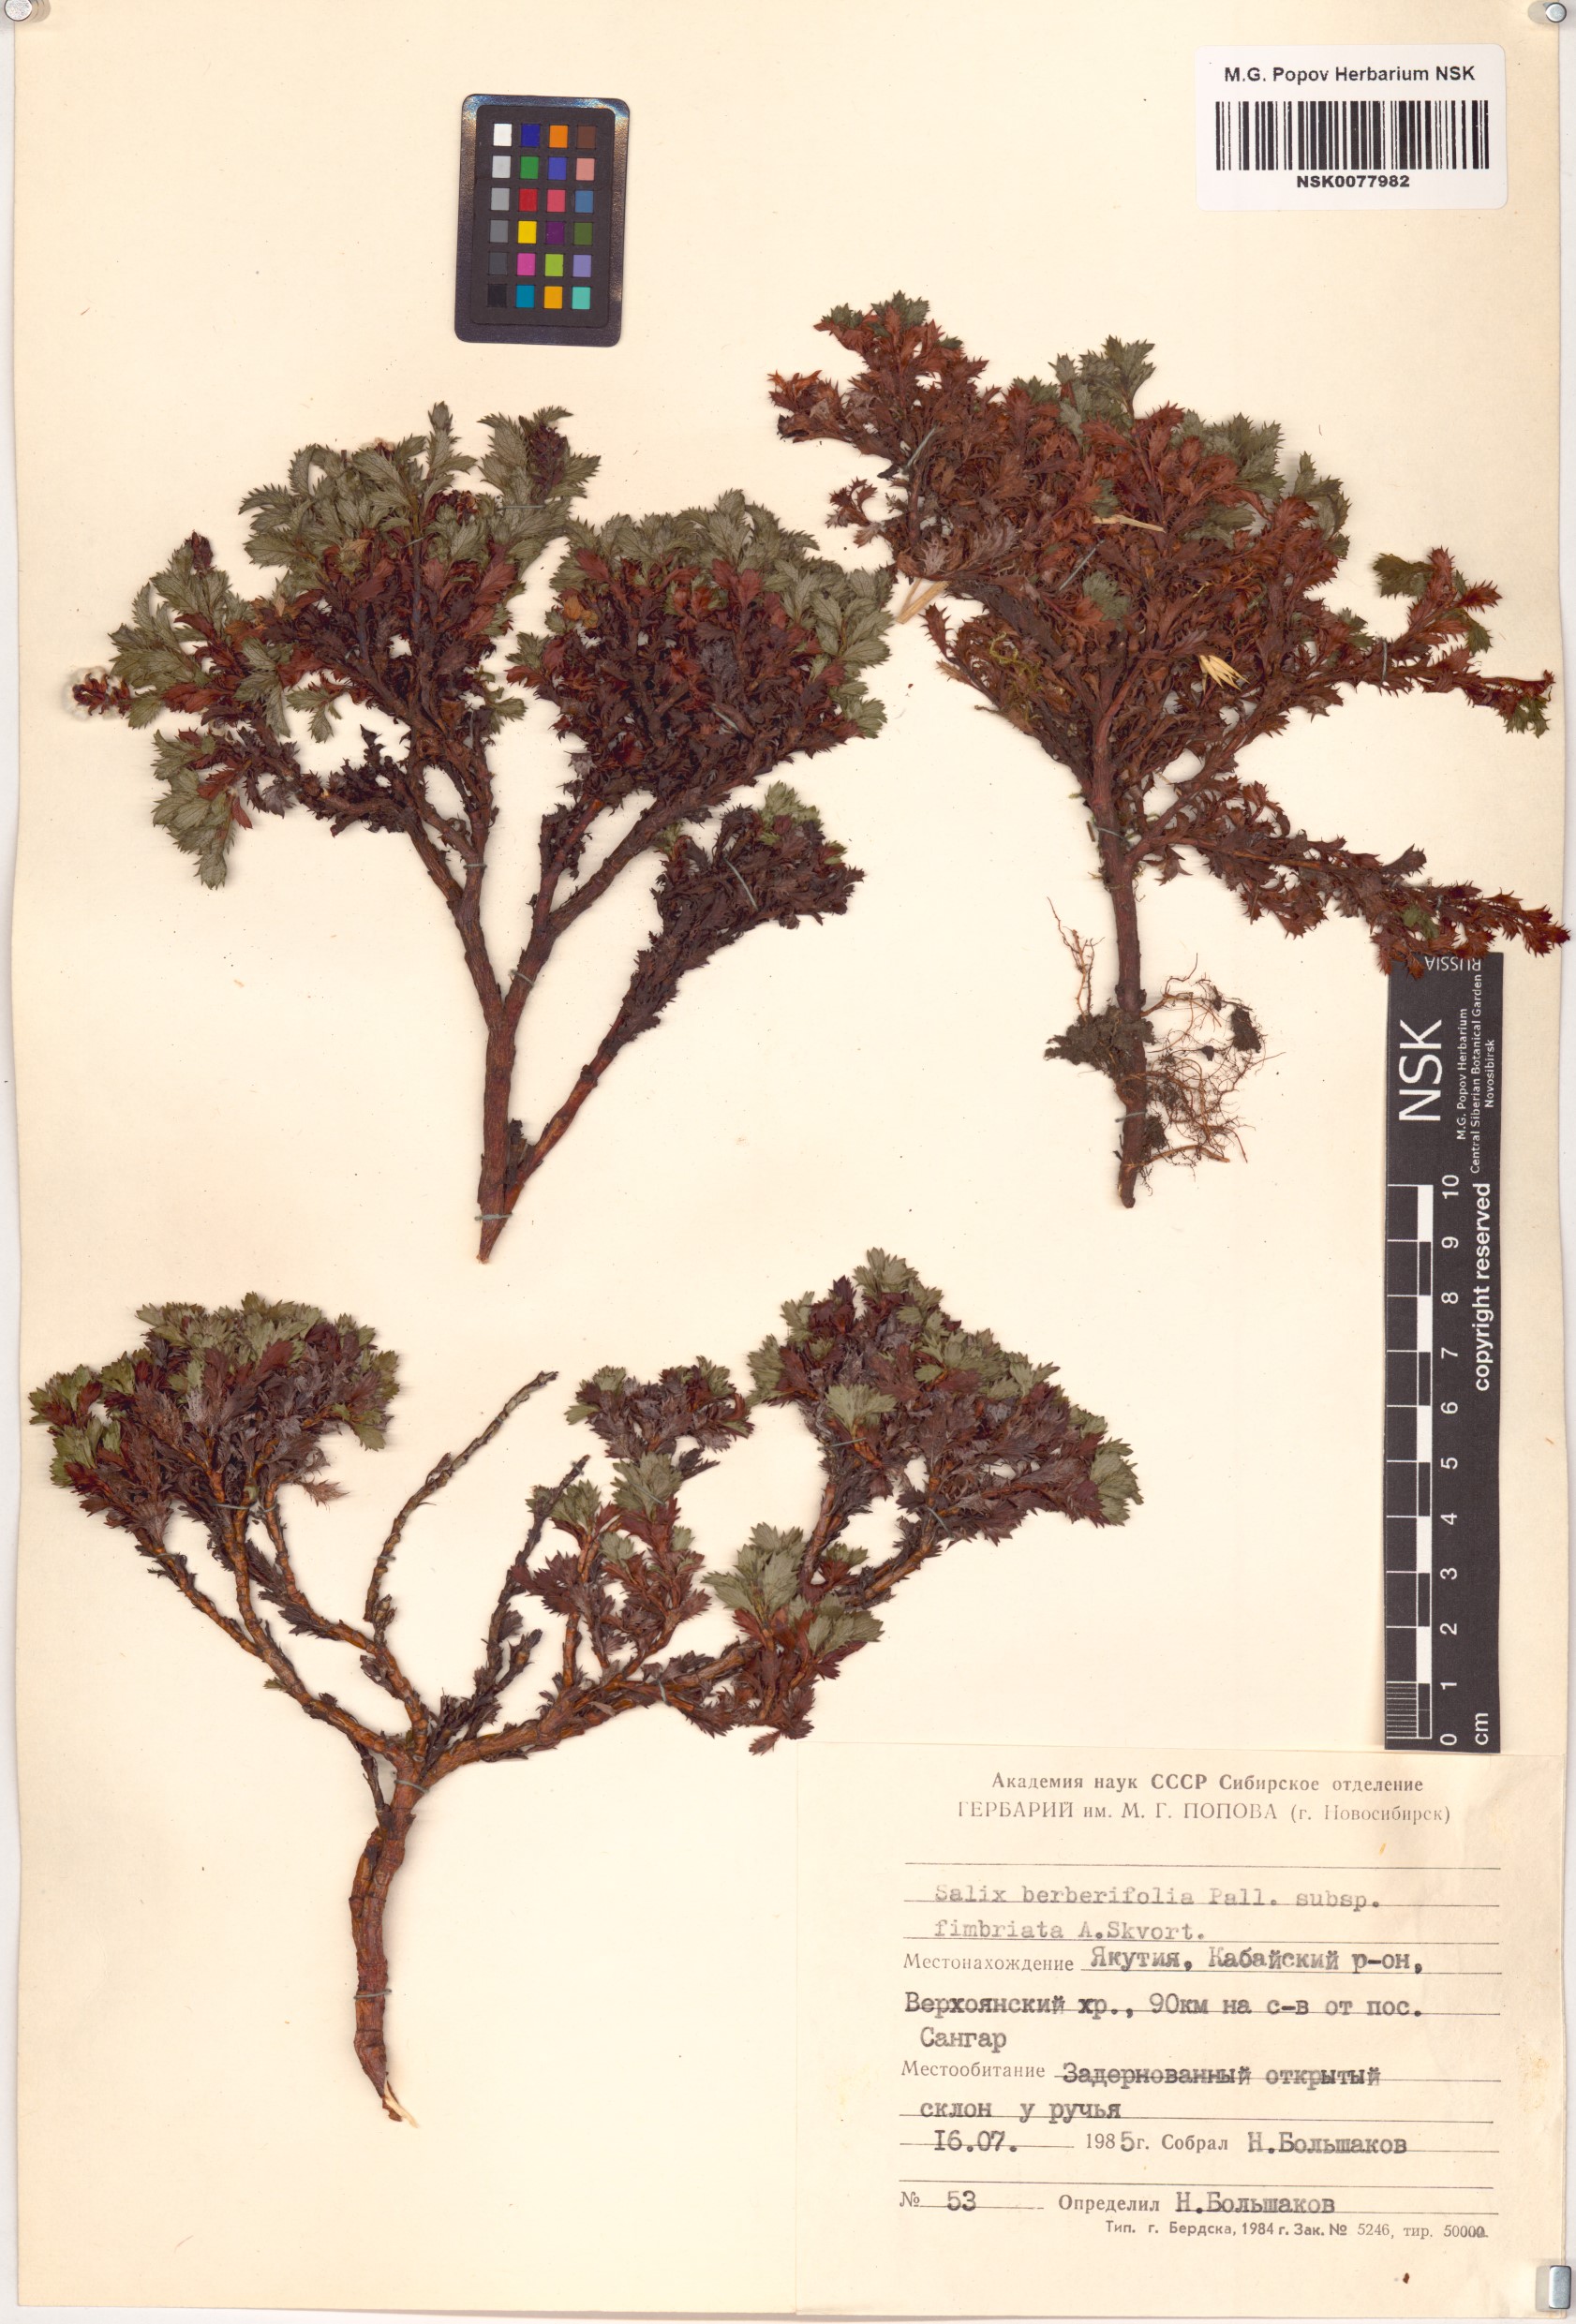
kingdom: Plantae
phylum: Tracheophyta
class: Magnoliopsida
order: Malpighiales
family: Salicaceae
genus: Salix
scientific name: Salix berberifolia
